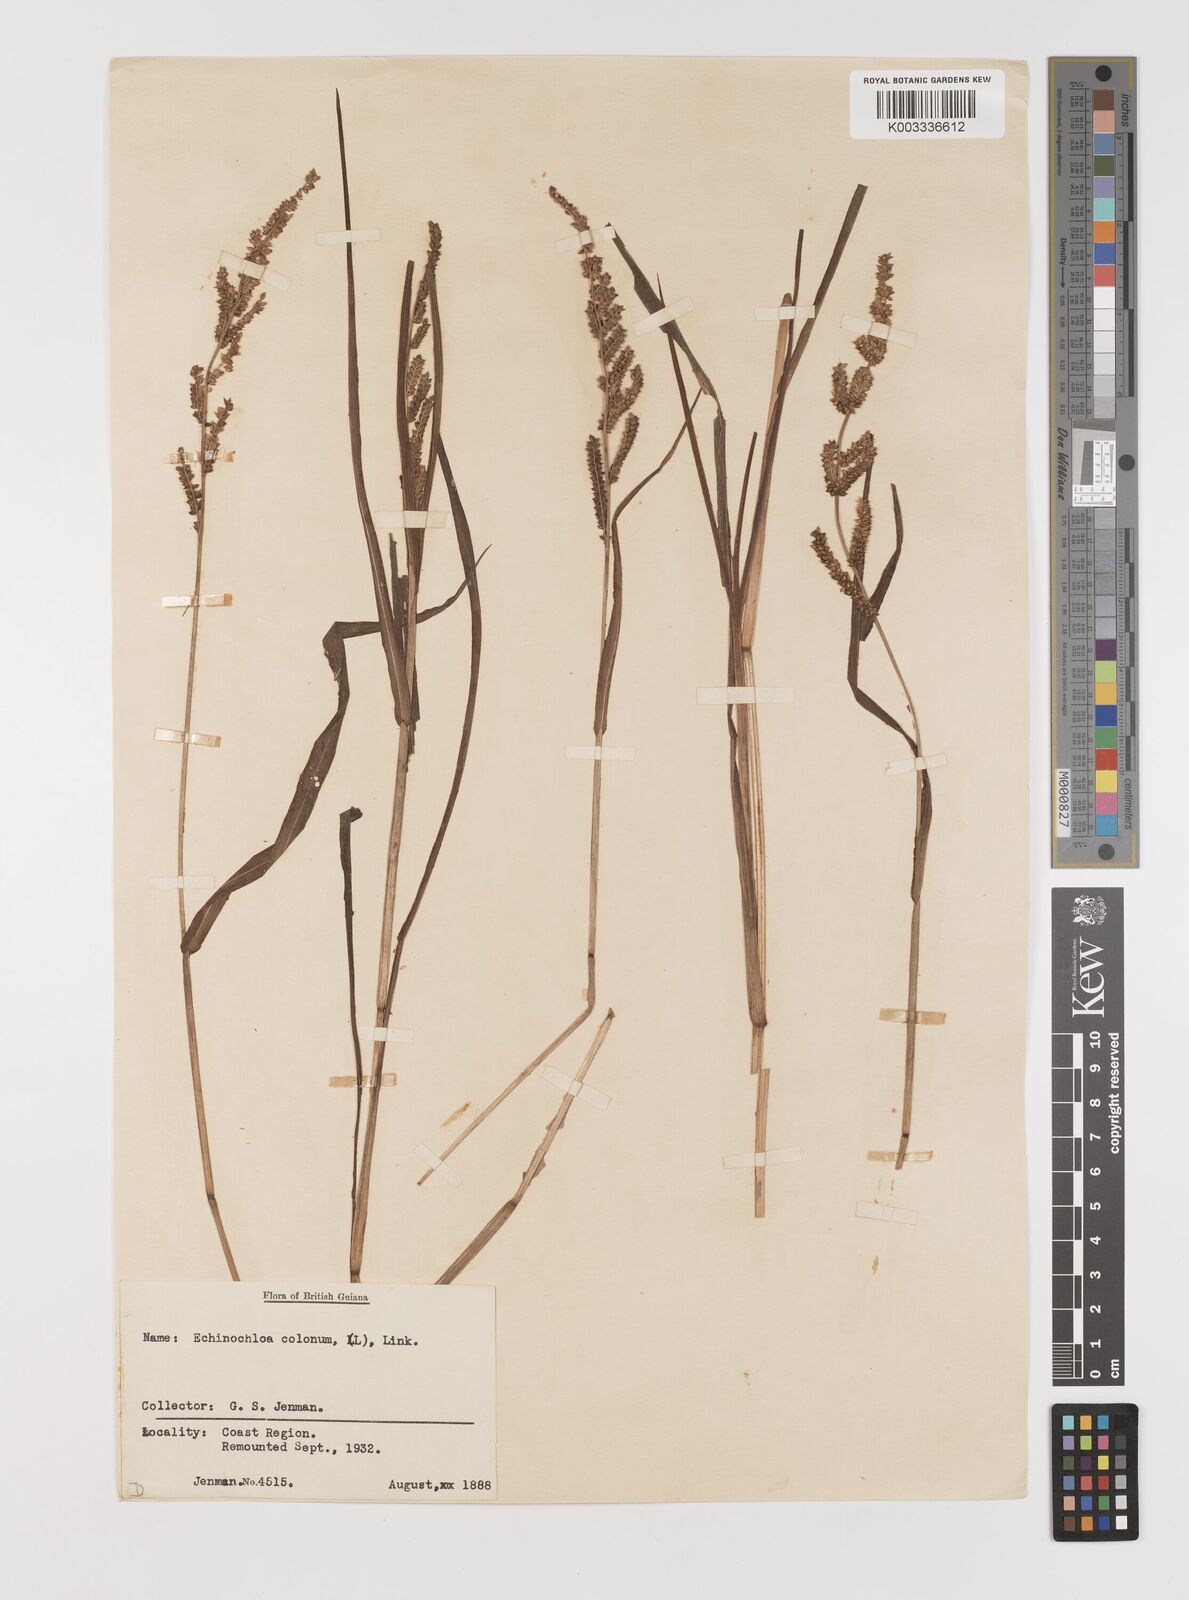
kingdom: Plantae
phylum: Tracheophyta
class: Liliopsida
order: Poales
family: Poaceae
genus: Echinochloa
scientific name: Echinochloa colonum
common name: Jungle rice
